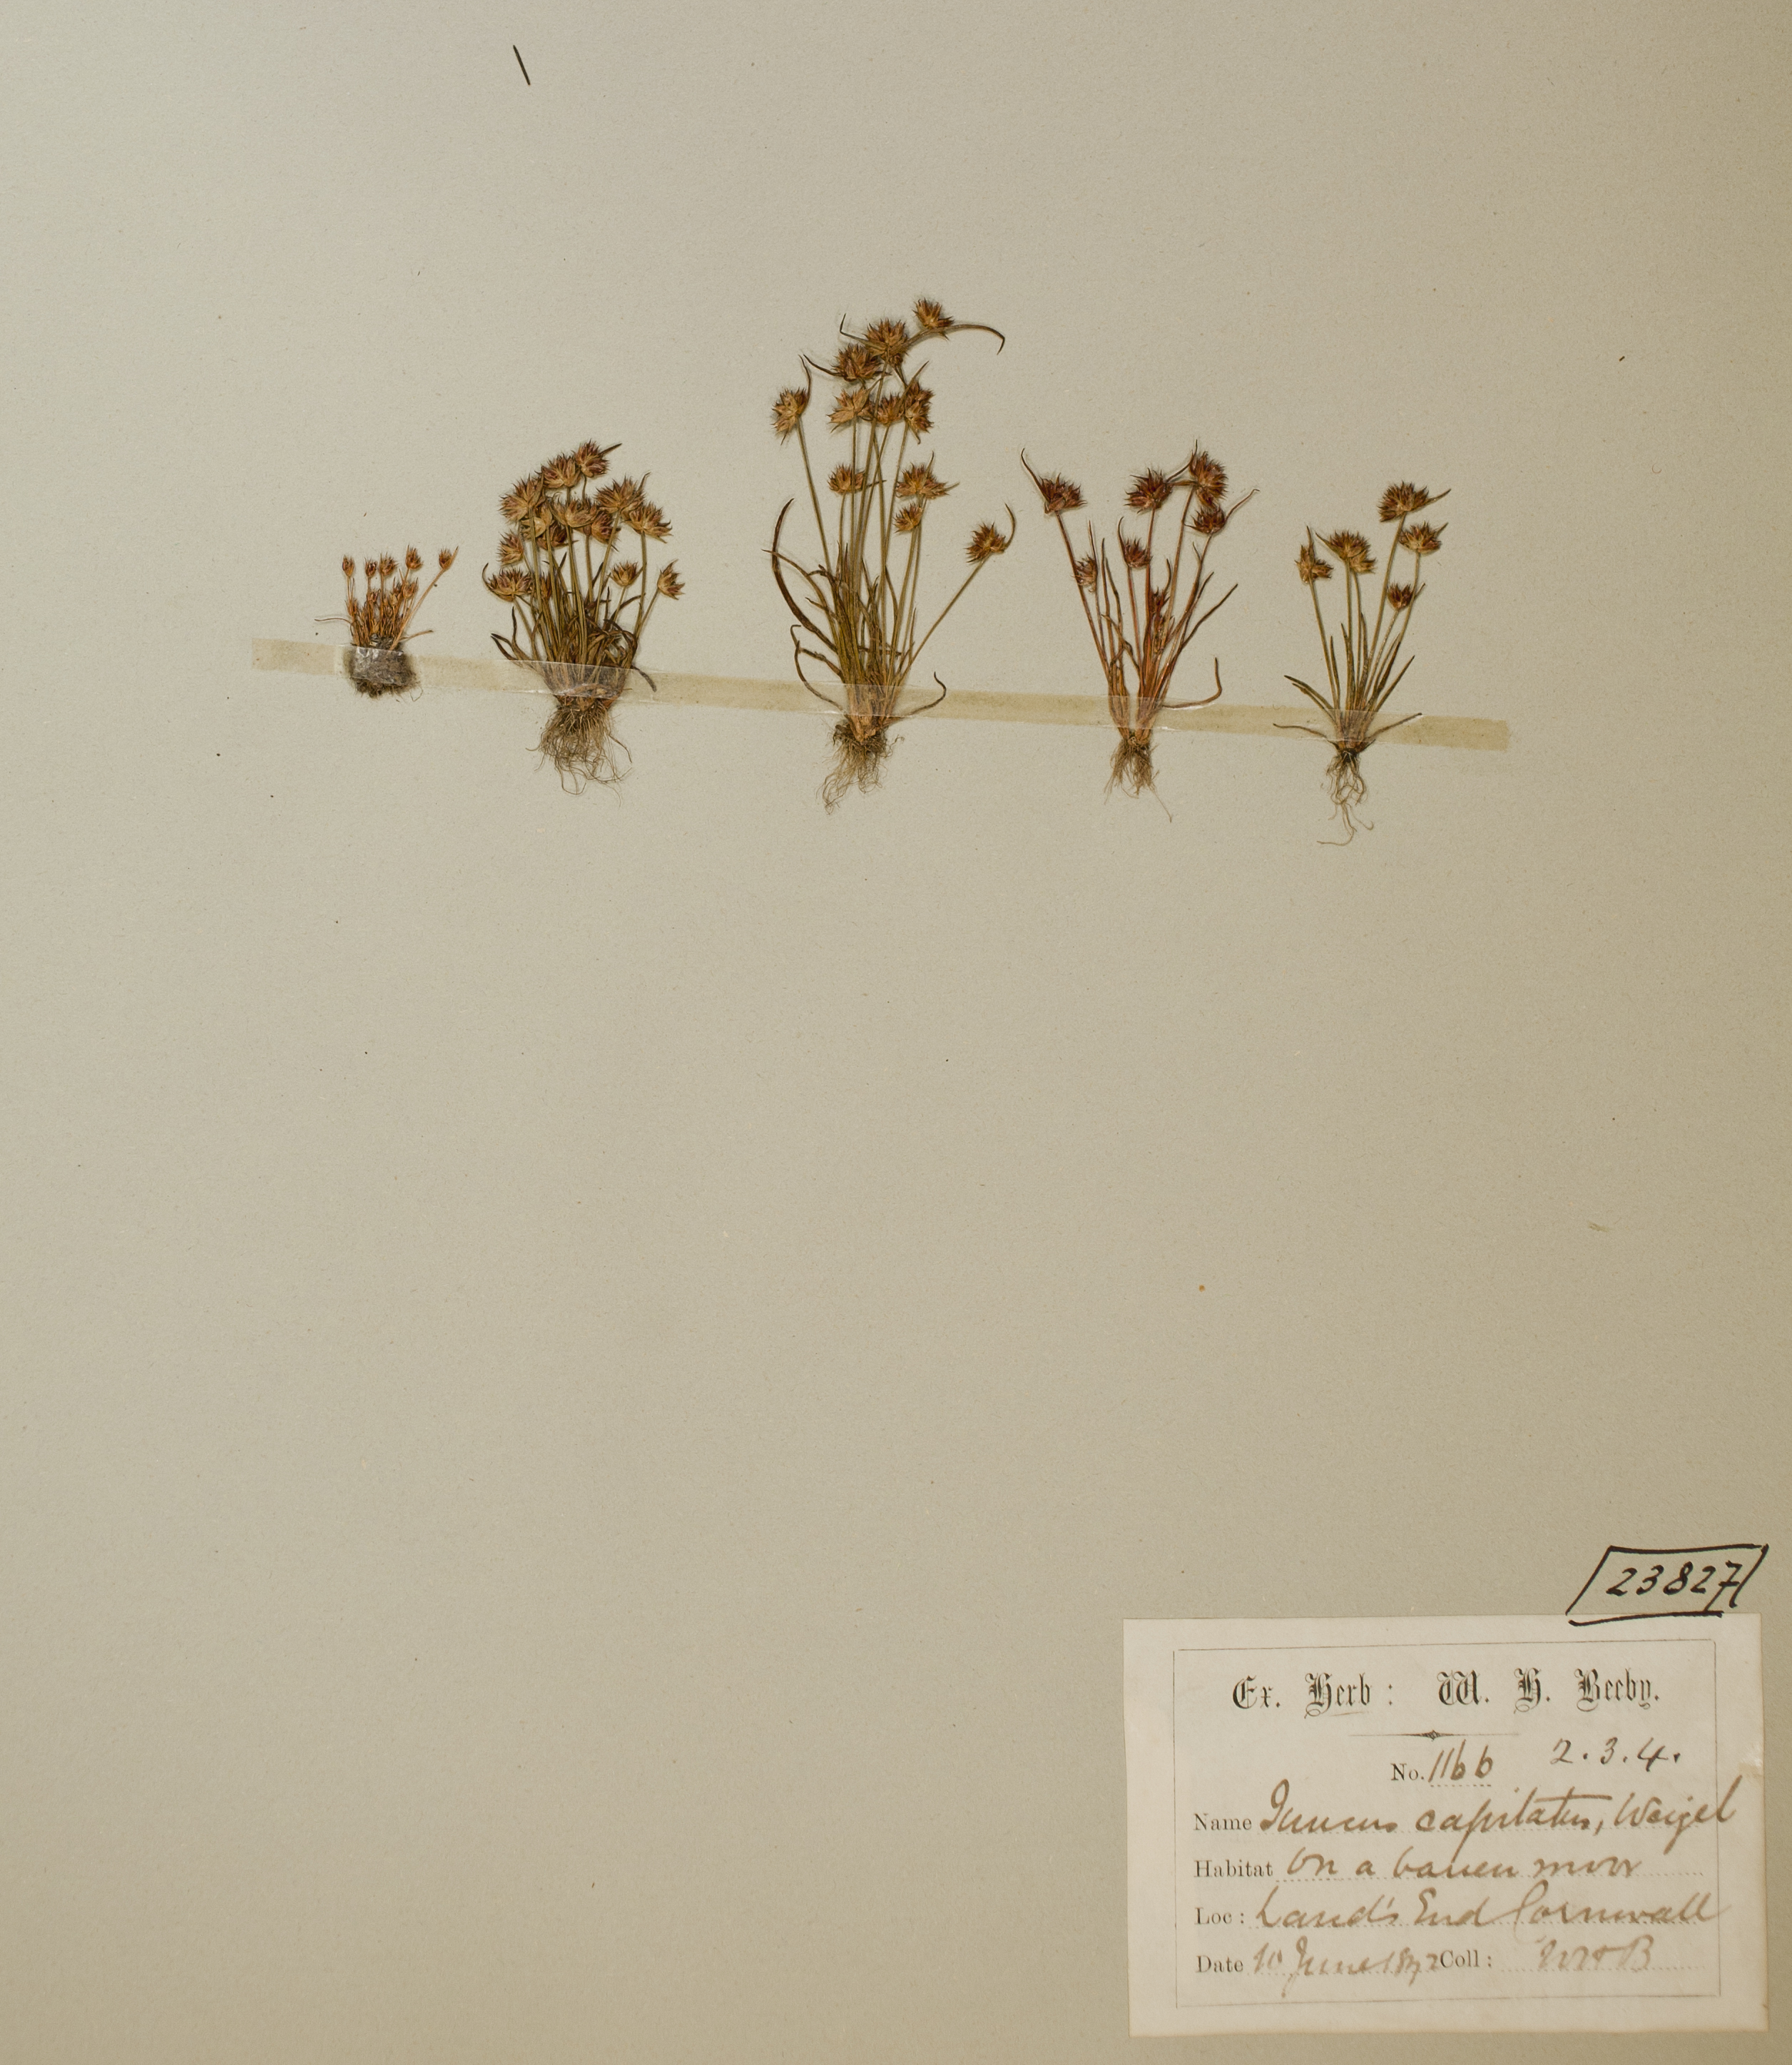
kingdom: Plantae
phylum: Tracheophyta
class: Liliopsida
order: Poales
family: Juncaceae
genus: Juncus
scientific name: Juncus capitatus
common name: Dwarf rush
